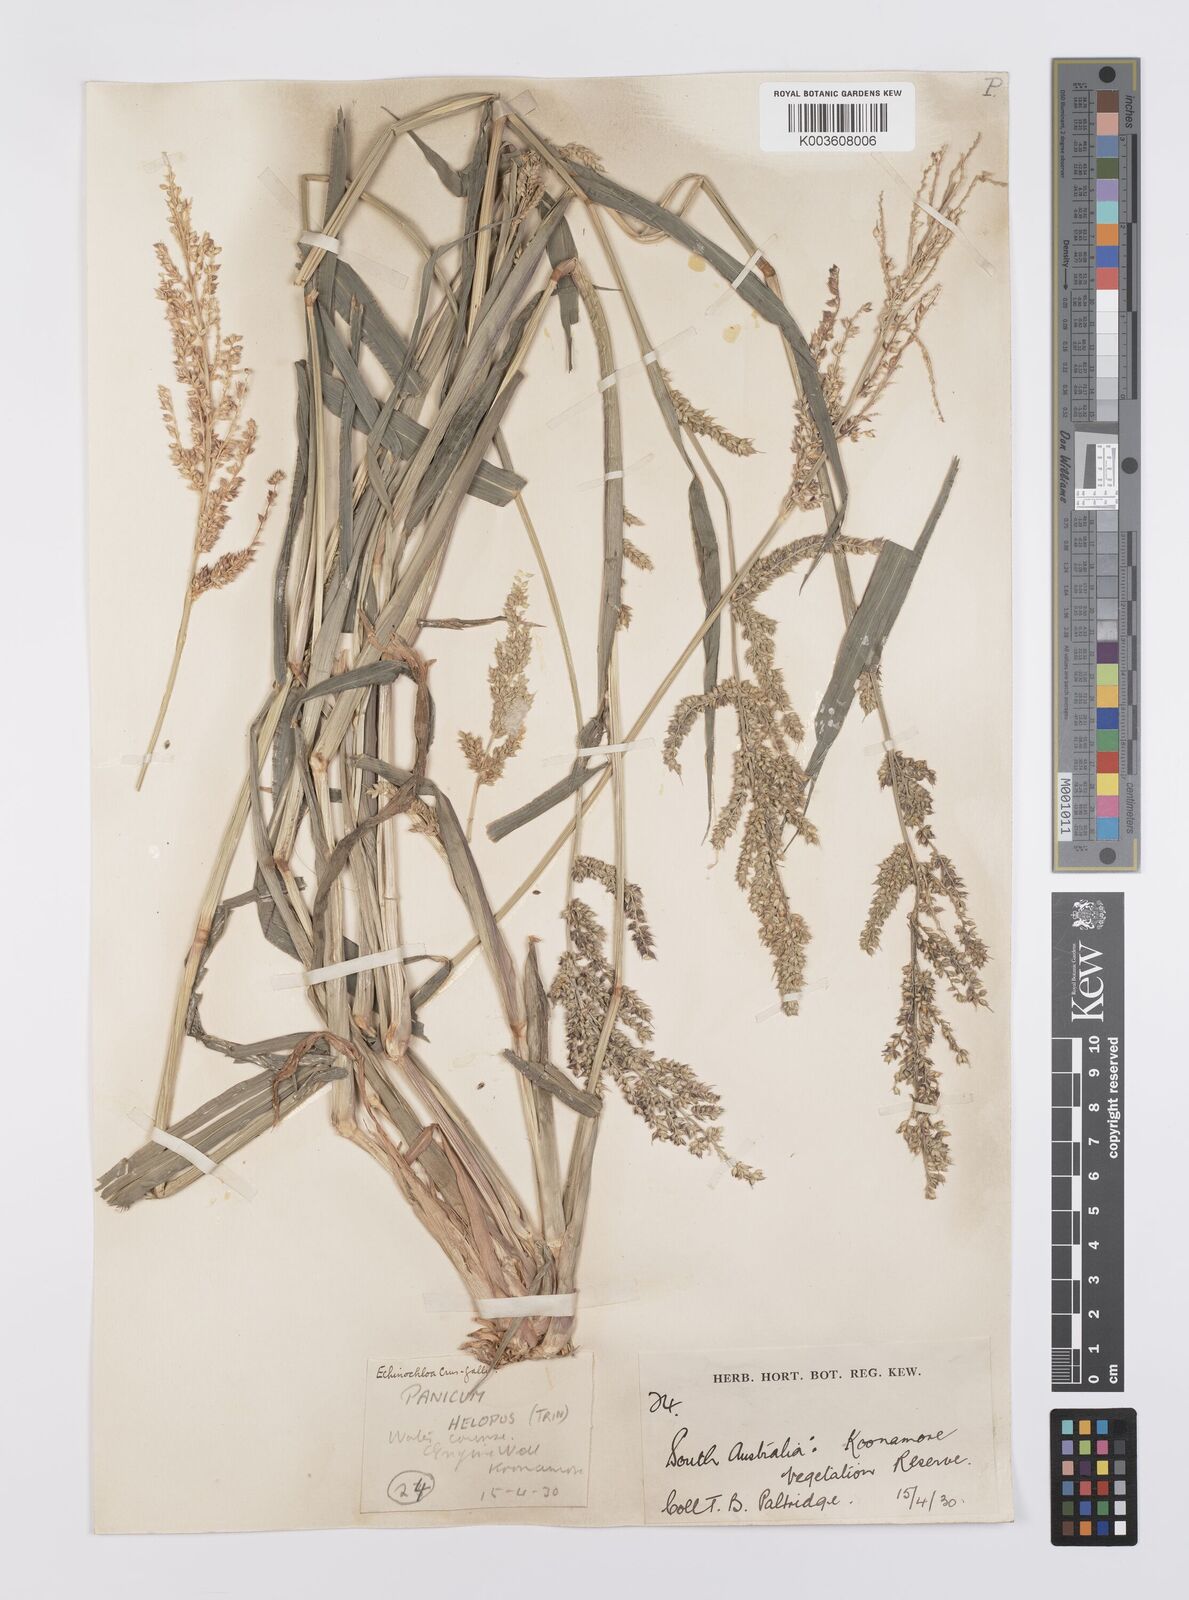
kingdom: Plantae
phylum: Tracheophyta
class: Liliopsida
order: Poales
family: Poaceae
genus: Echinochloa
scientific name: Echinochloa crus-galli
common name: Cockspur
